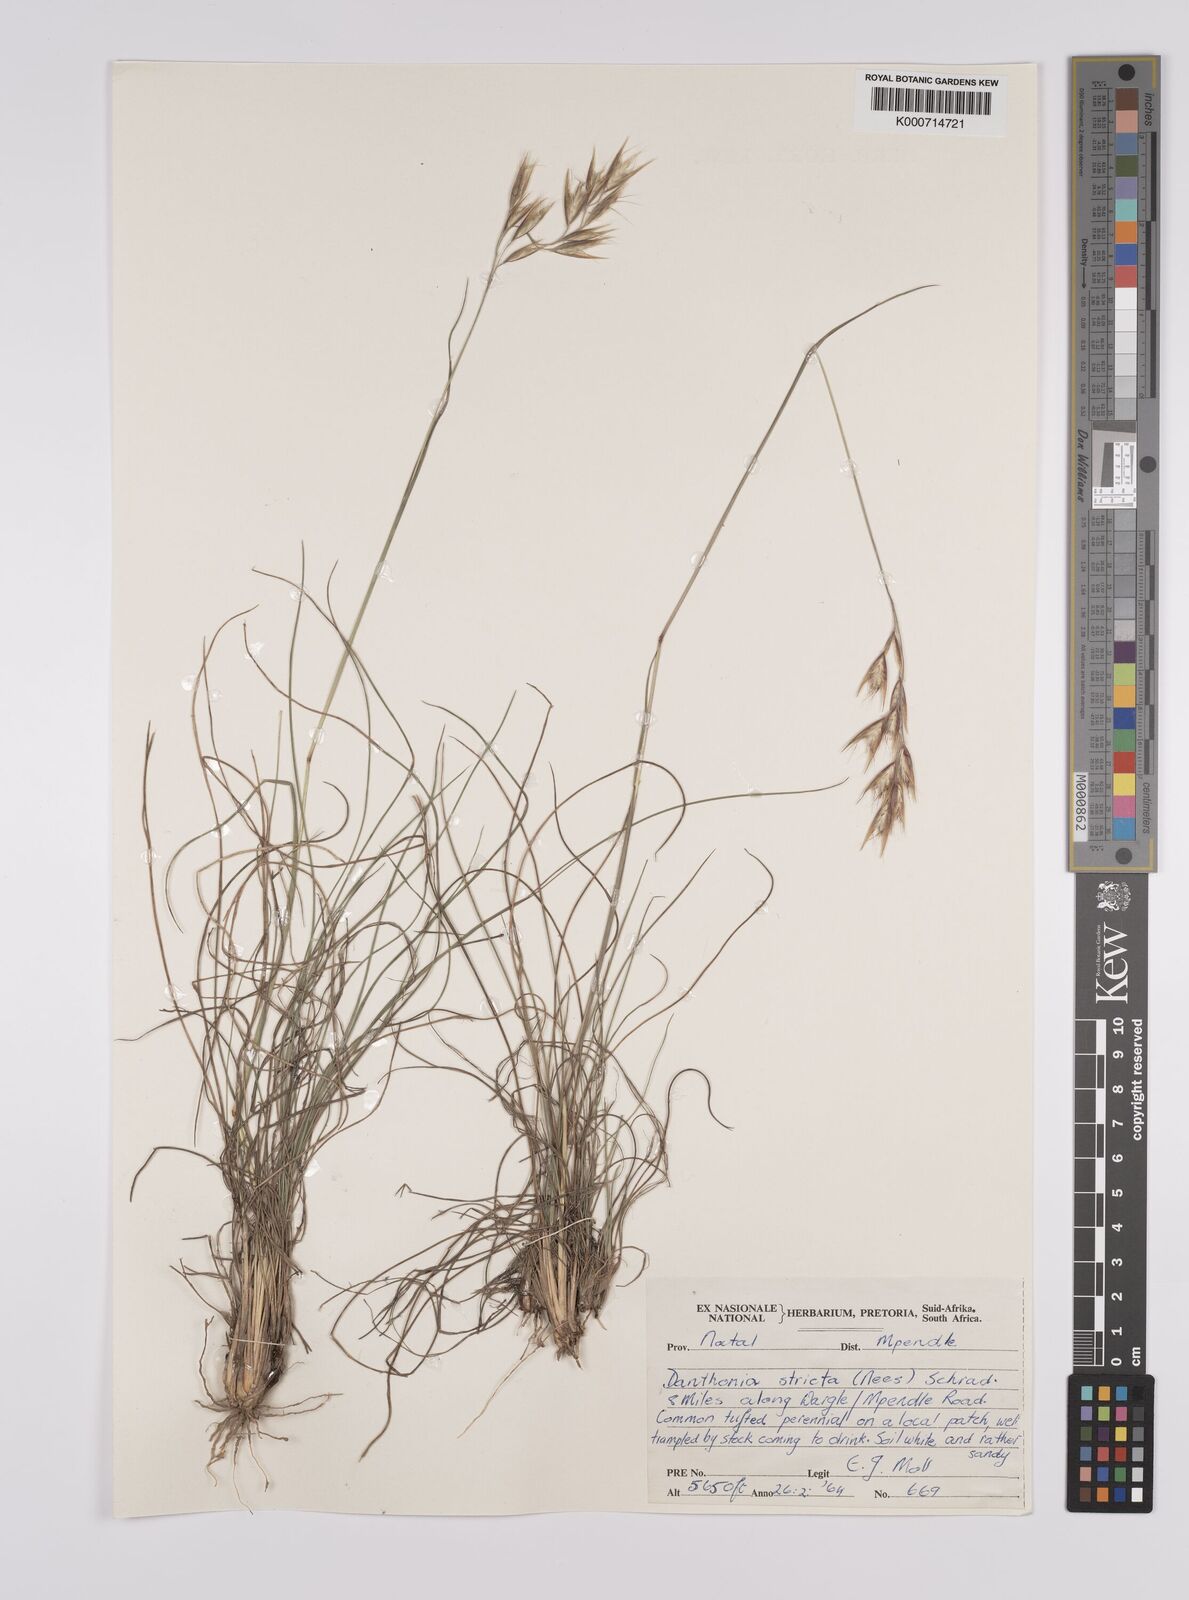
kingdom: Plantae
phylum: Tracheophyta
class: Liliopsida
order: Poales
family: Poaceae
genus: Rytidosperma
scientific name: Rytidosperma
